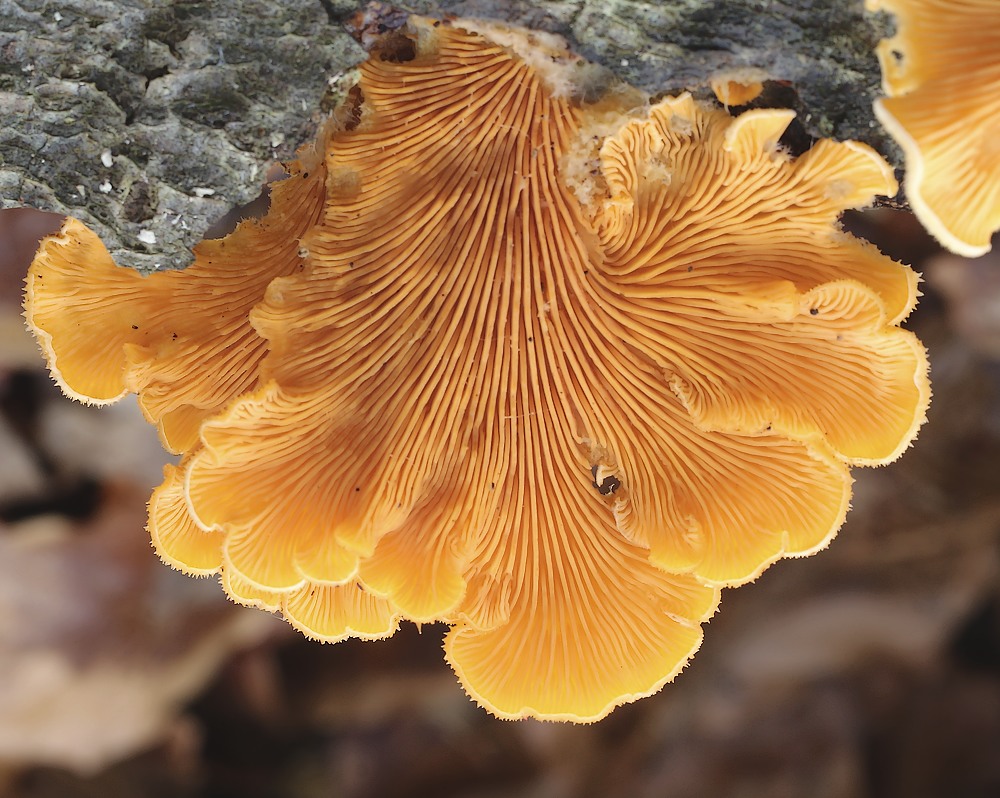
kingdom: Fungi
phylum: Basidiomycota
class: Agaricomycetes
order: Agaricales
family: Phyllotopsidaceae
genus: Phyllotopsis
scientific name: Phyllotopsis nidulans
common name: okkerblad
